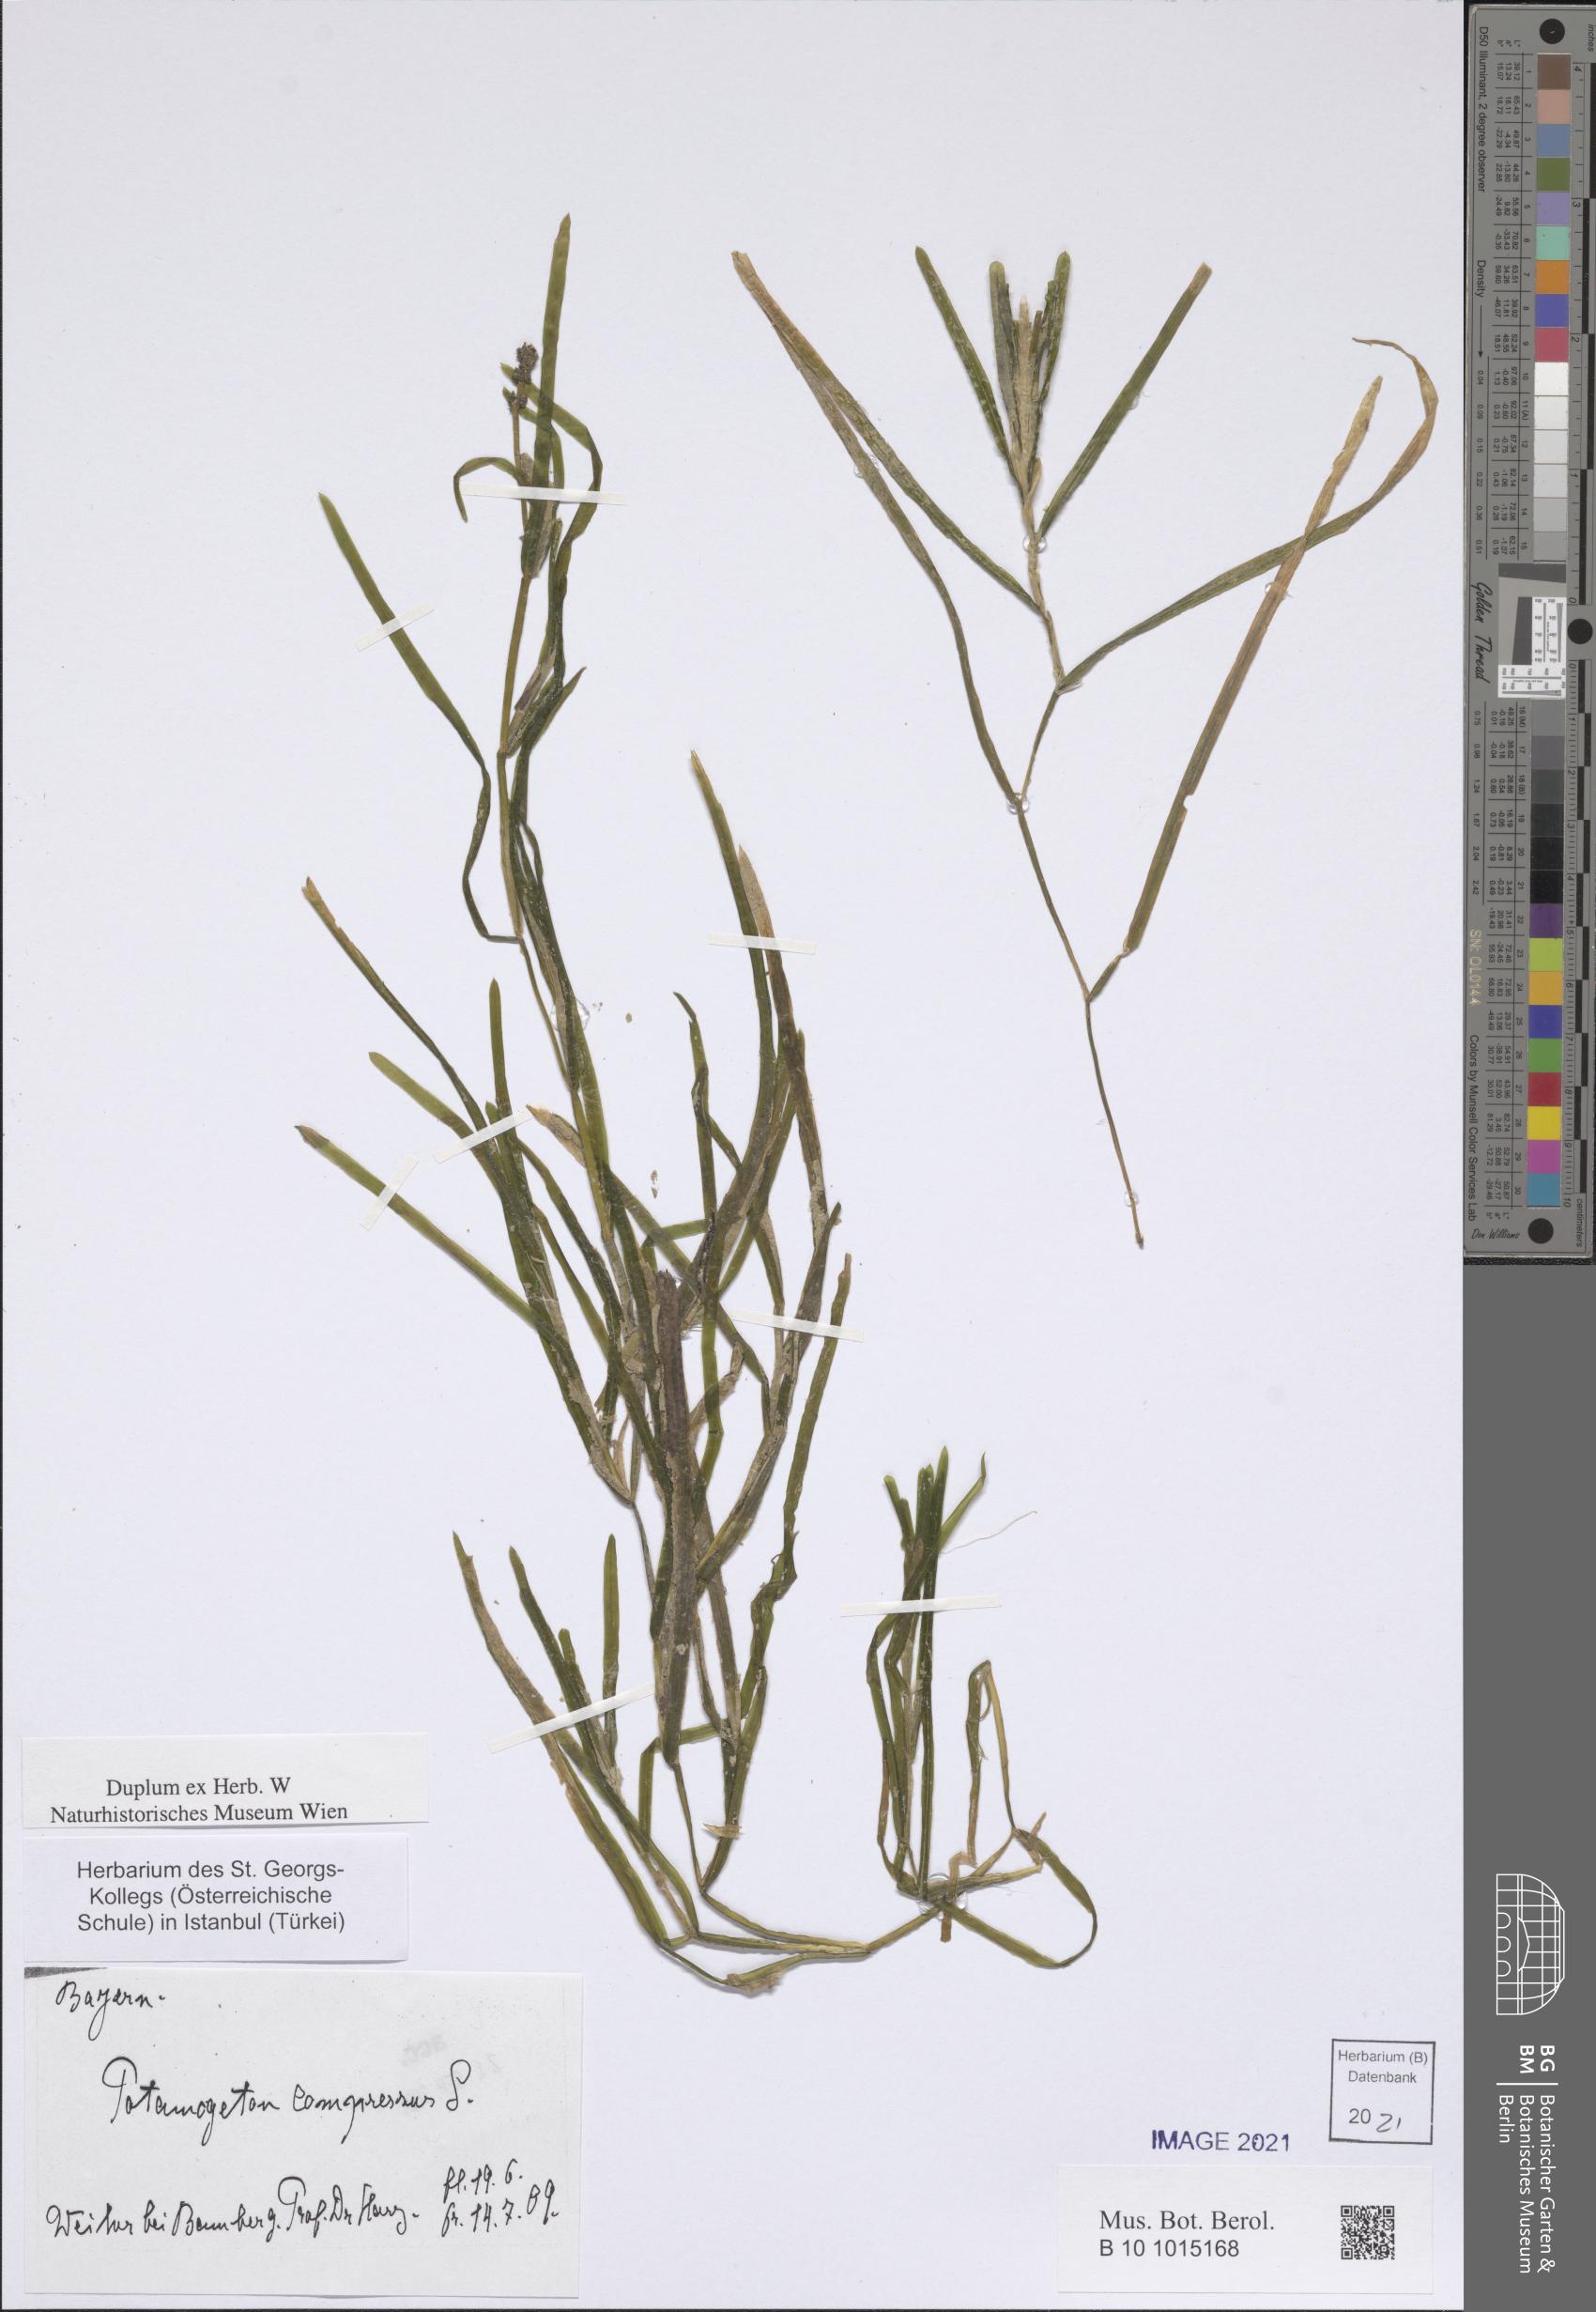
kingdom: Plantae
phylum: Tracheophyta
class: Liliopsida
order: Alismatales
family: Potamogetonaceae
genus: Potamogeton
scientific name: Potamogeton compressus
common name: Grass-wrack pondweed
